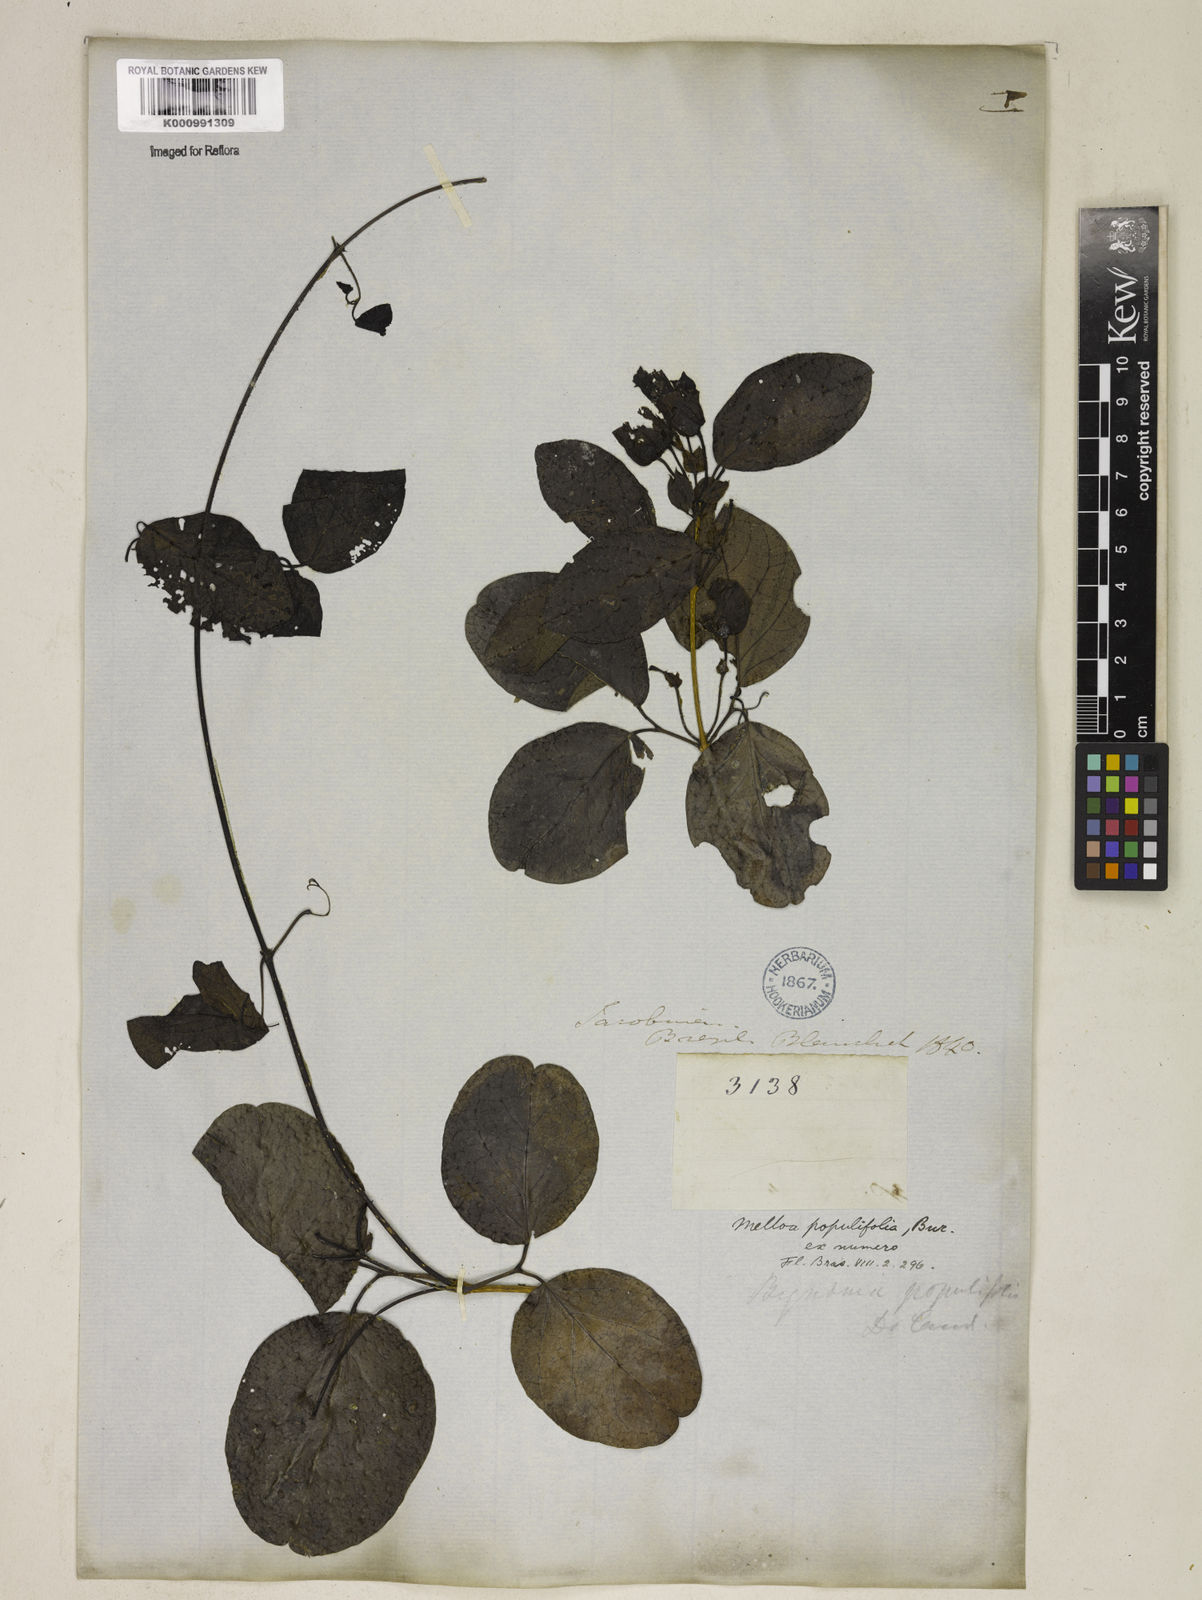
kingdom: Plantae
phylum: Tracheophyta
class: Magnoliopsida
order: Lamiales
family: Bignoniaceae
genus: Dolichandra
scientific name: Dolichandra quadrivalvis
